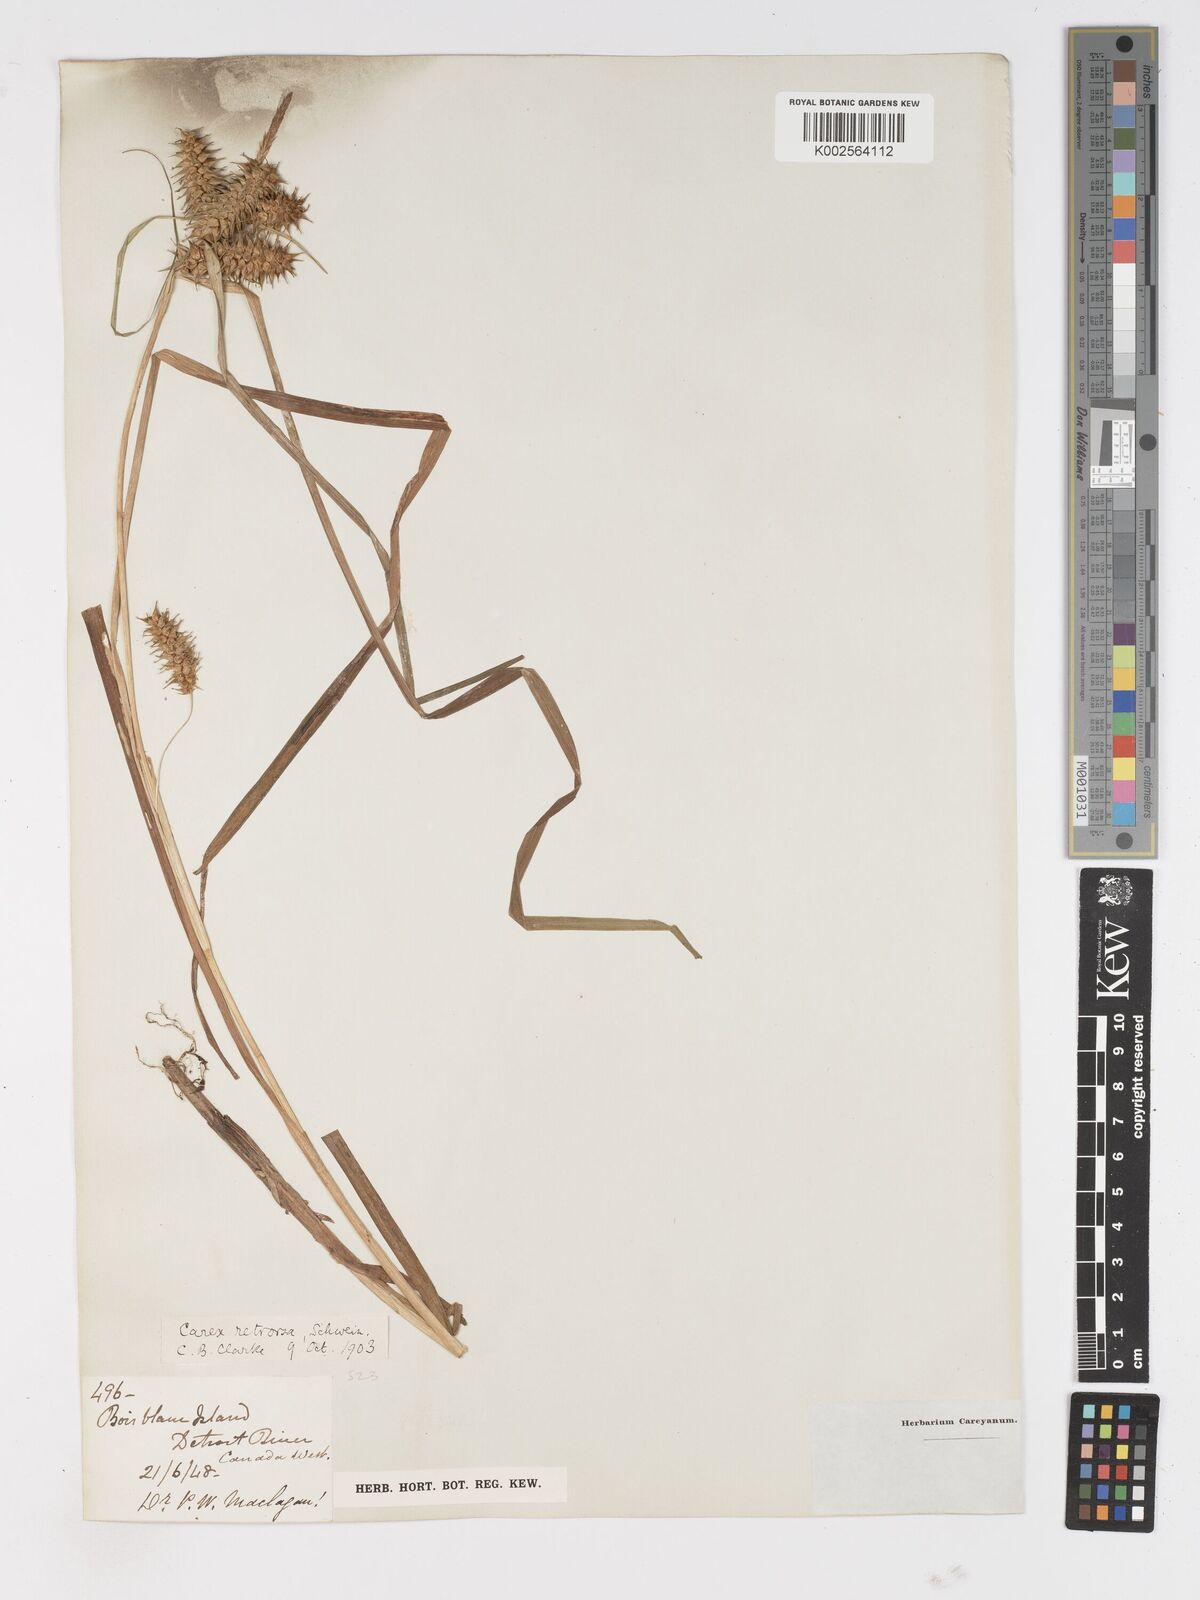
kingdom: Plantae
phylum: Tracheophyta
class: Liliopsida
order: Poales
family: Cyperaceae
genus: Carex
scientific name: Carex retrorsa
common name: Knot-sheath sedge
